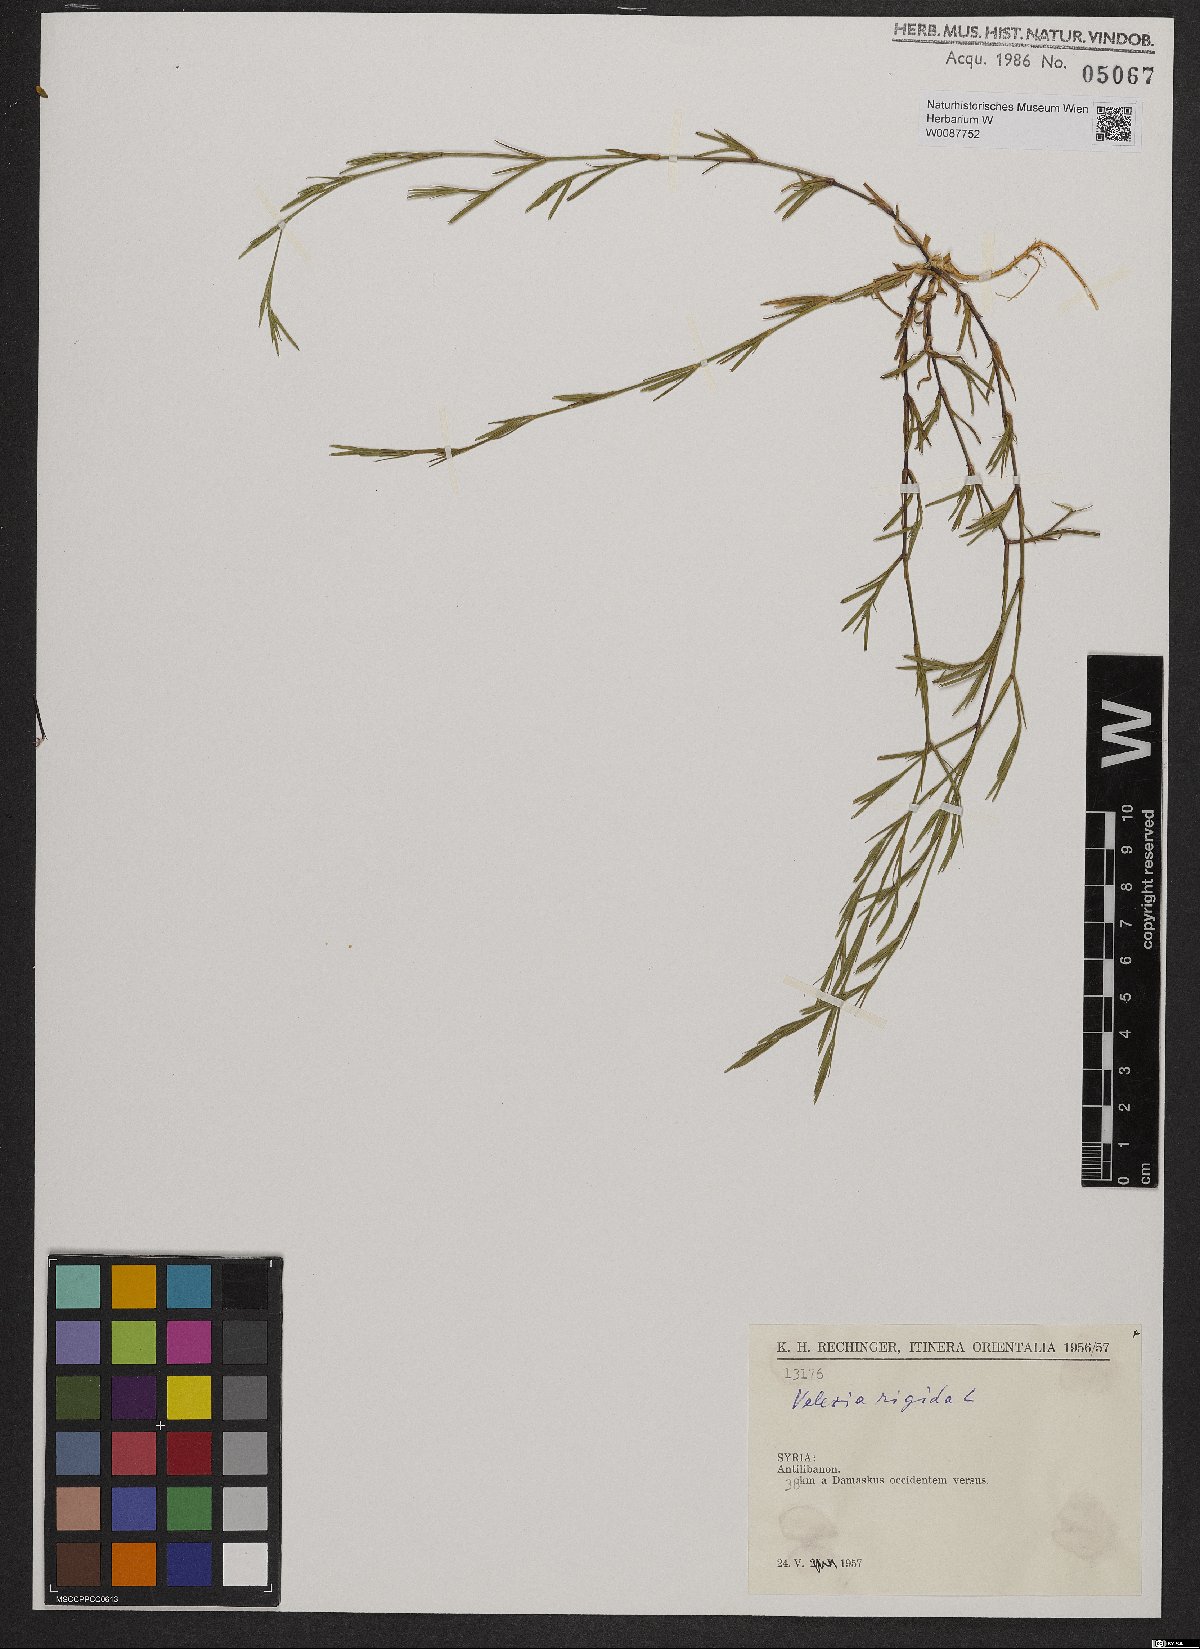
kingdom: Plantae
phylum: Tracheophyta
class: Magnoliopsida
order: Caryophyllales
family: Caryophyllaceae
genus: Dianthus
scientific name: Dianthus nudiflorus
